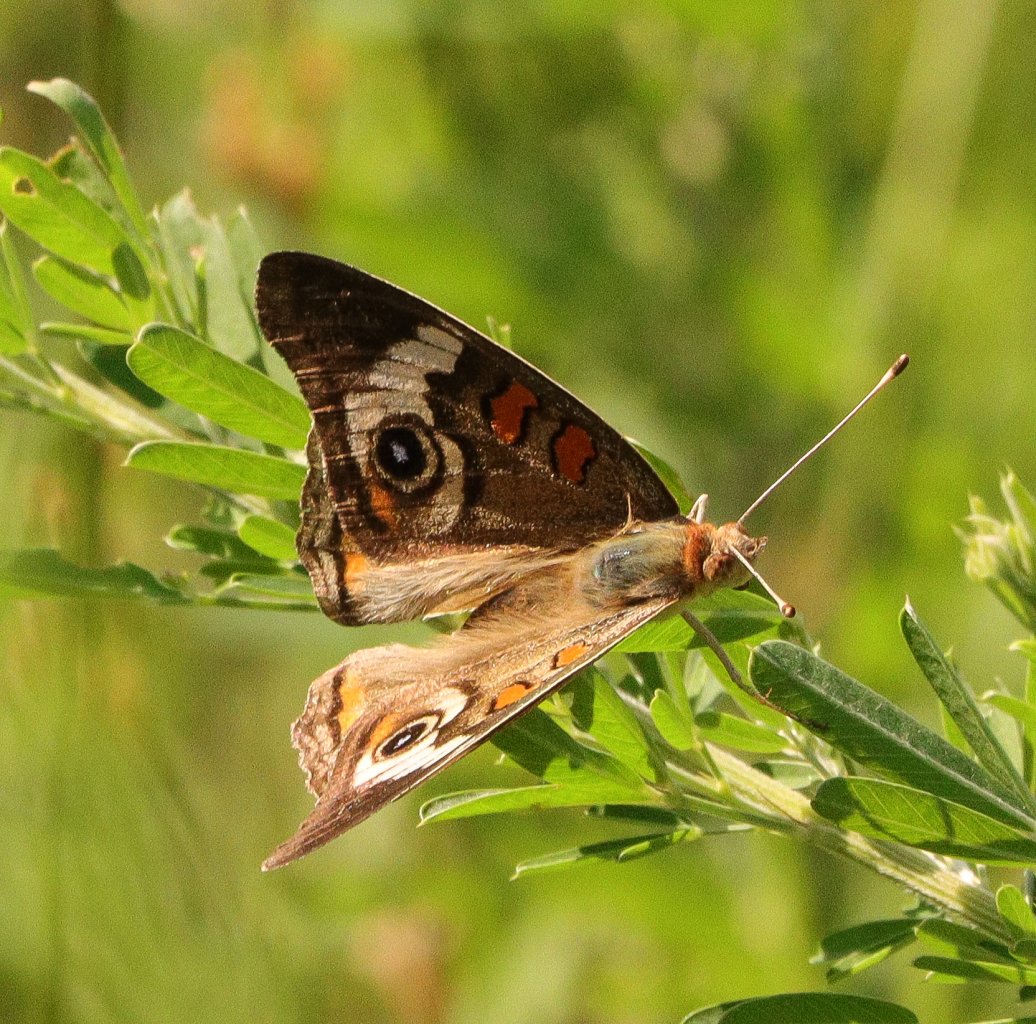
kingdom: Animalia
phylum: Arthropoda
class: Insecta
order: Lepidoptera
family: Nymphalidae
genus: Junonia
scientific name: Junonia coenia
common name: Common Buckeye
